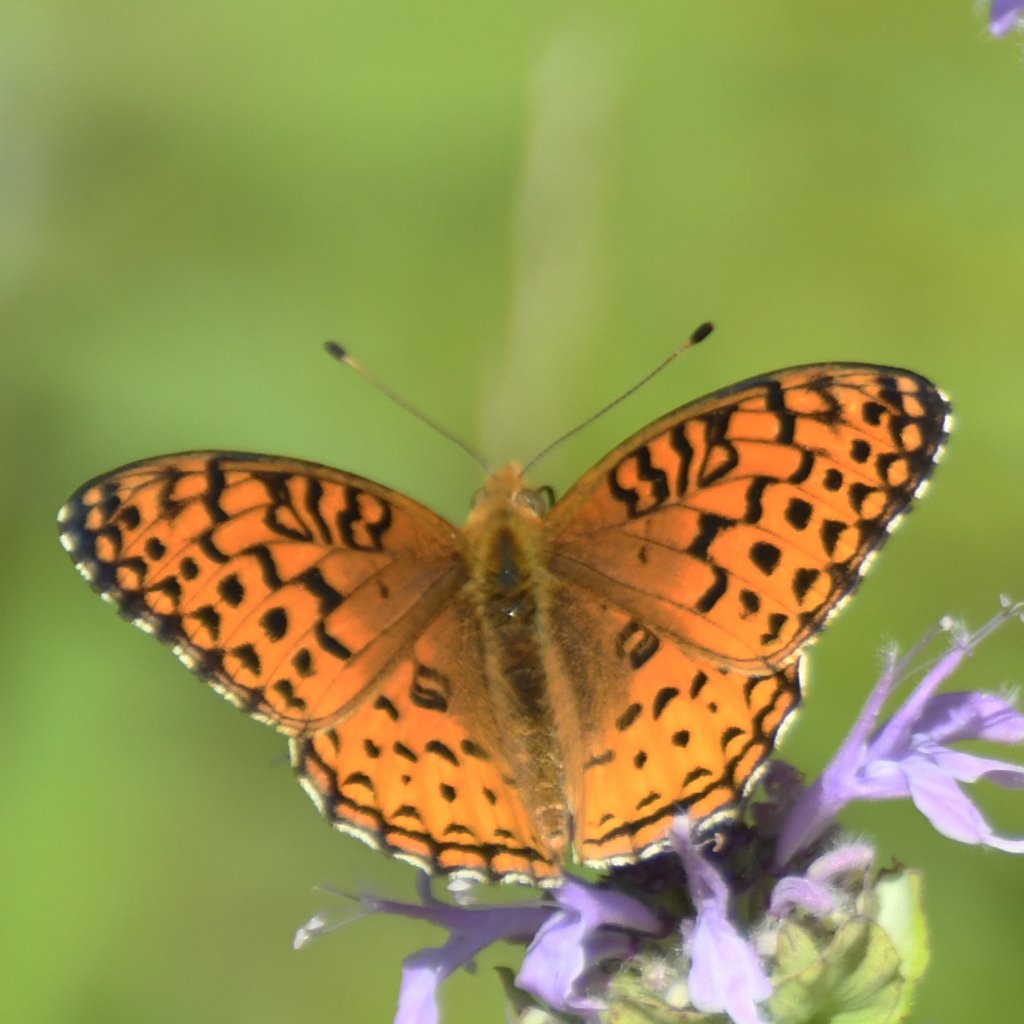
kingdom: Animalia
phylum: Arthropoda
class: Insecta
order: Lepidoptera
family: Nymphalidae
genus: Speyeria
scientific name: Speyeria aphrodite
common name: Aphrodite Fritillary
